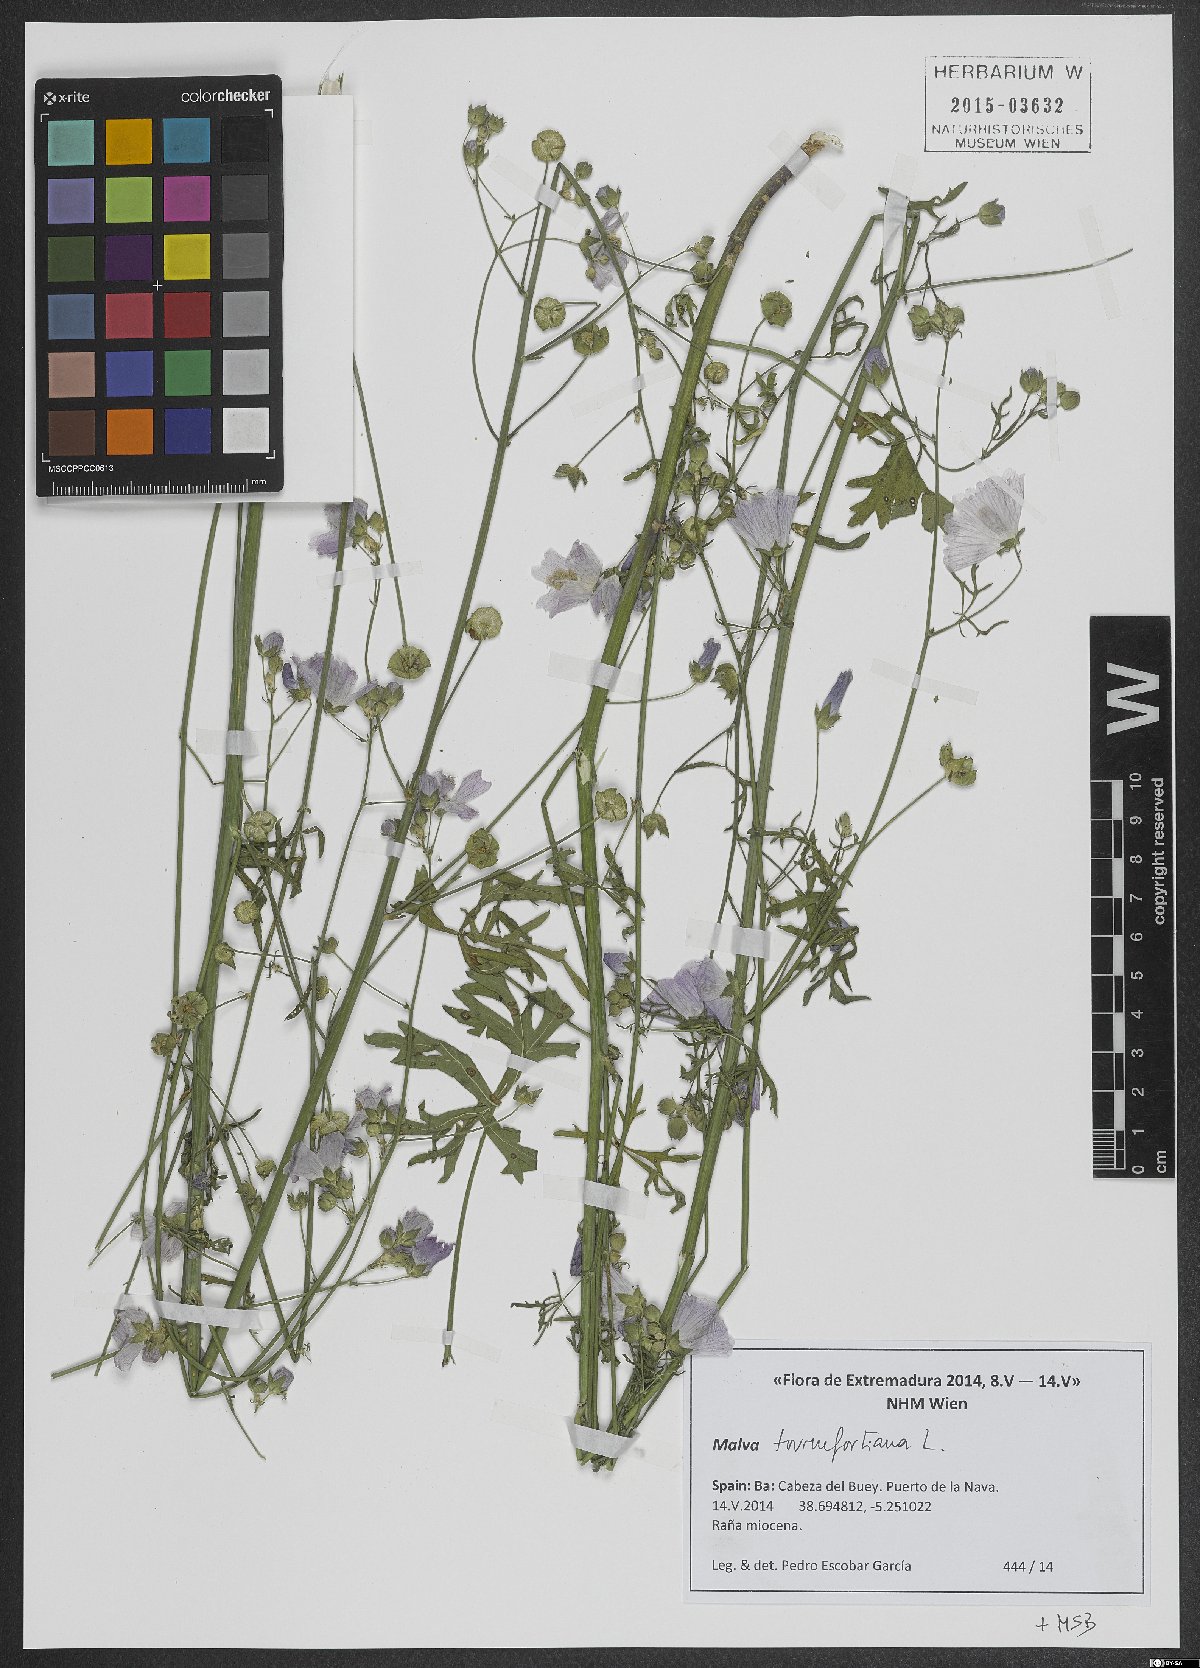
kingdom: Plantae
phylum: Tracheophyta
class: Magnoliopsida
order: Malvales
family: Malvaceae
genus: Malva
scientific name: Malva tournefortiana
